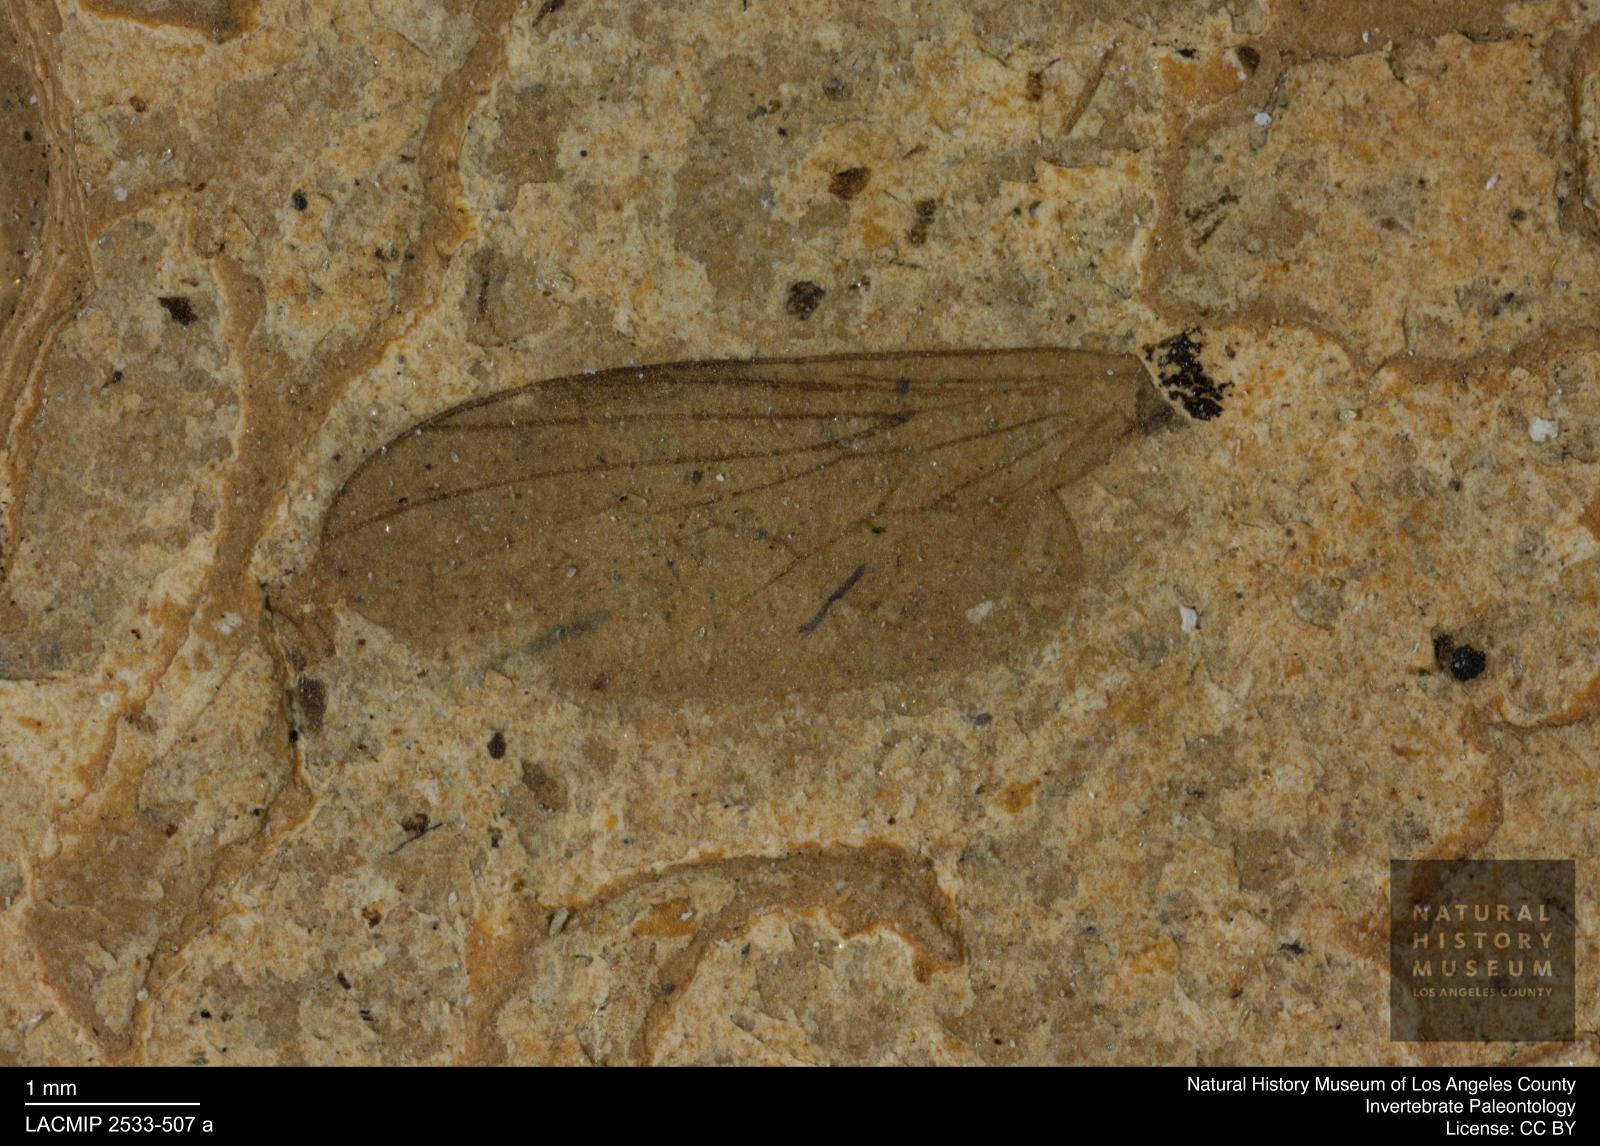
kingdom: Animalia
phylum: Arthropoda
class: Insecta
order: Diptera
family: Empididae
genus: Rhamphomyia
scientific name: Rhamphomyia rottensis
